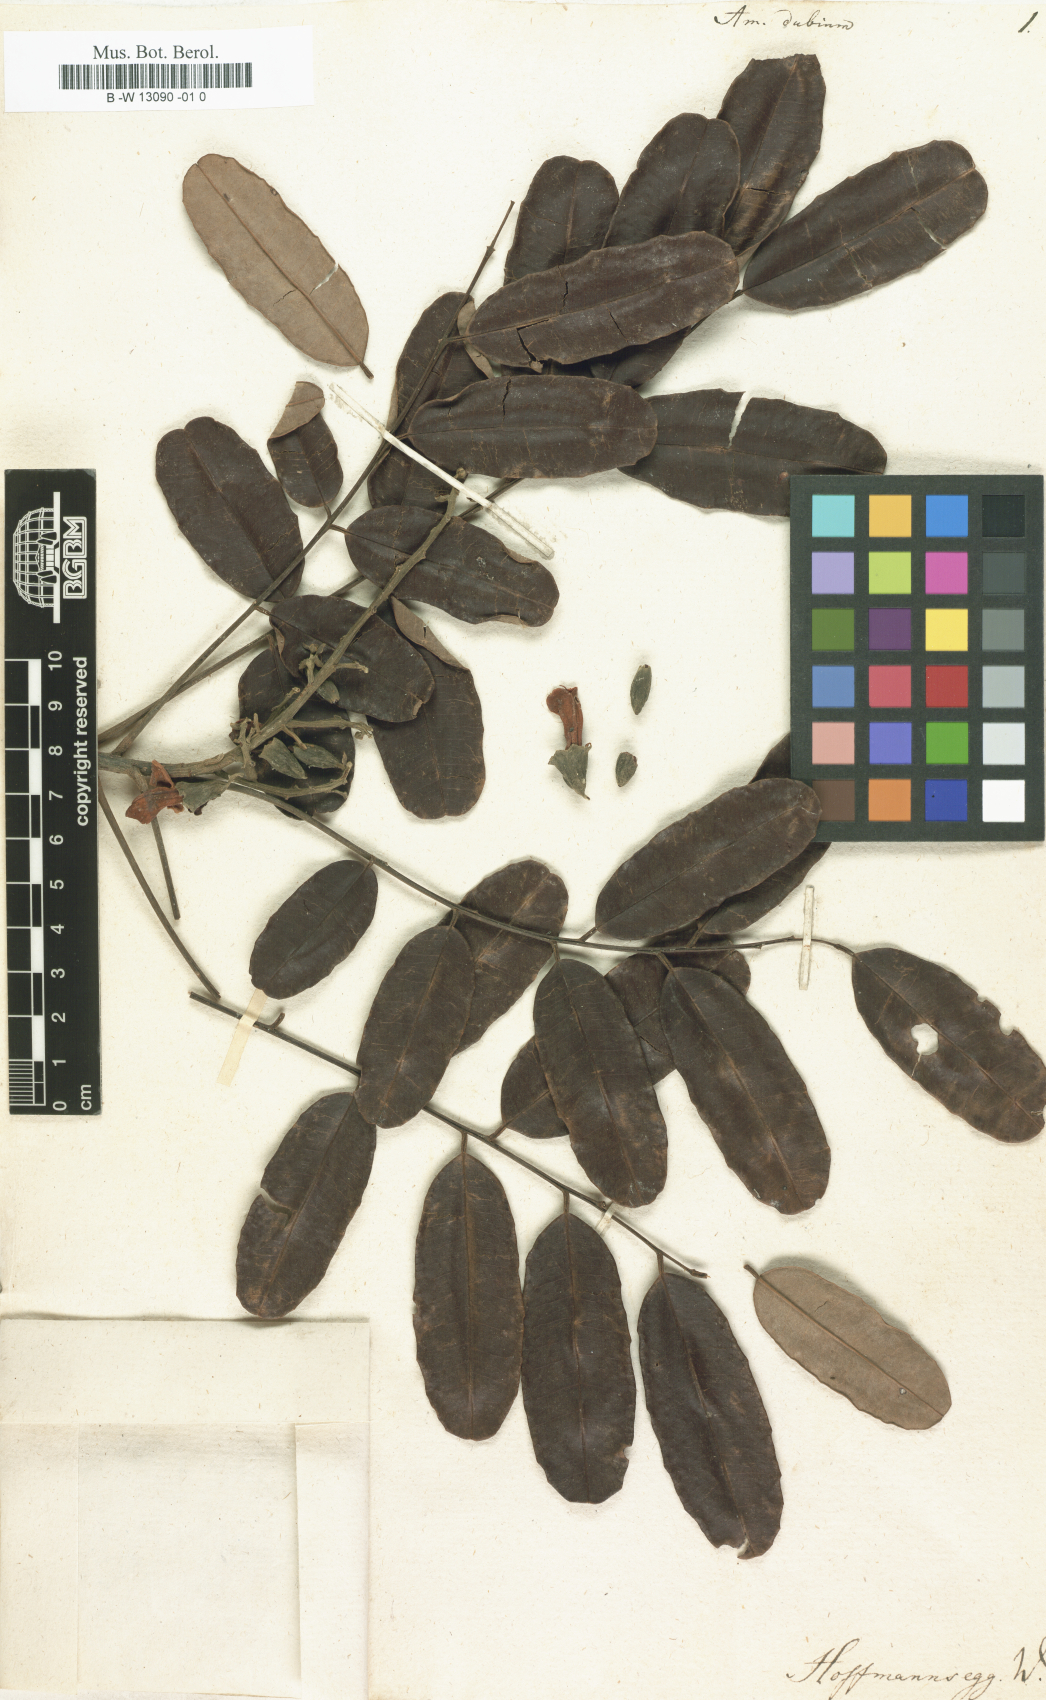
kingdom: Plantae
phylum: Tracheophyta
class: Magnoliopsida
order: Fabales
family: Fabaceae
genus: Amerimnum
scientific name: Amerimnum
